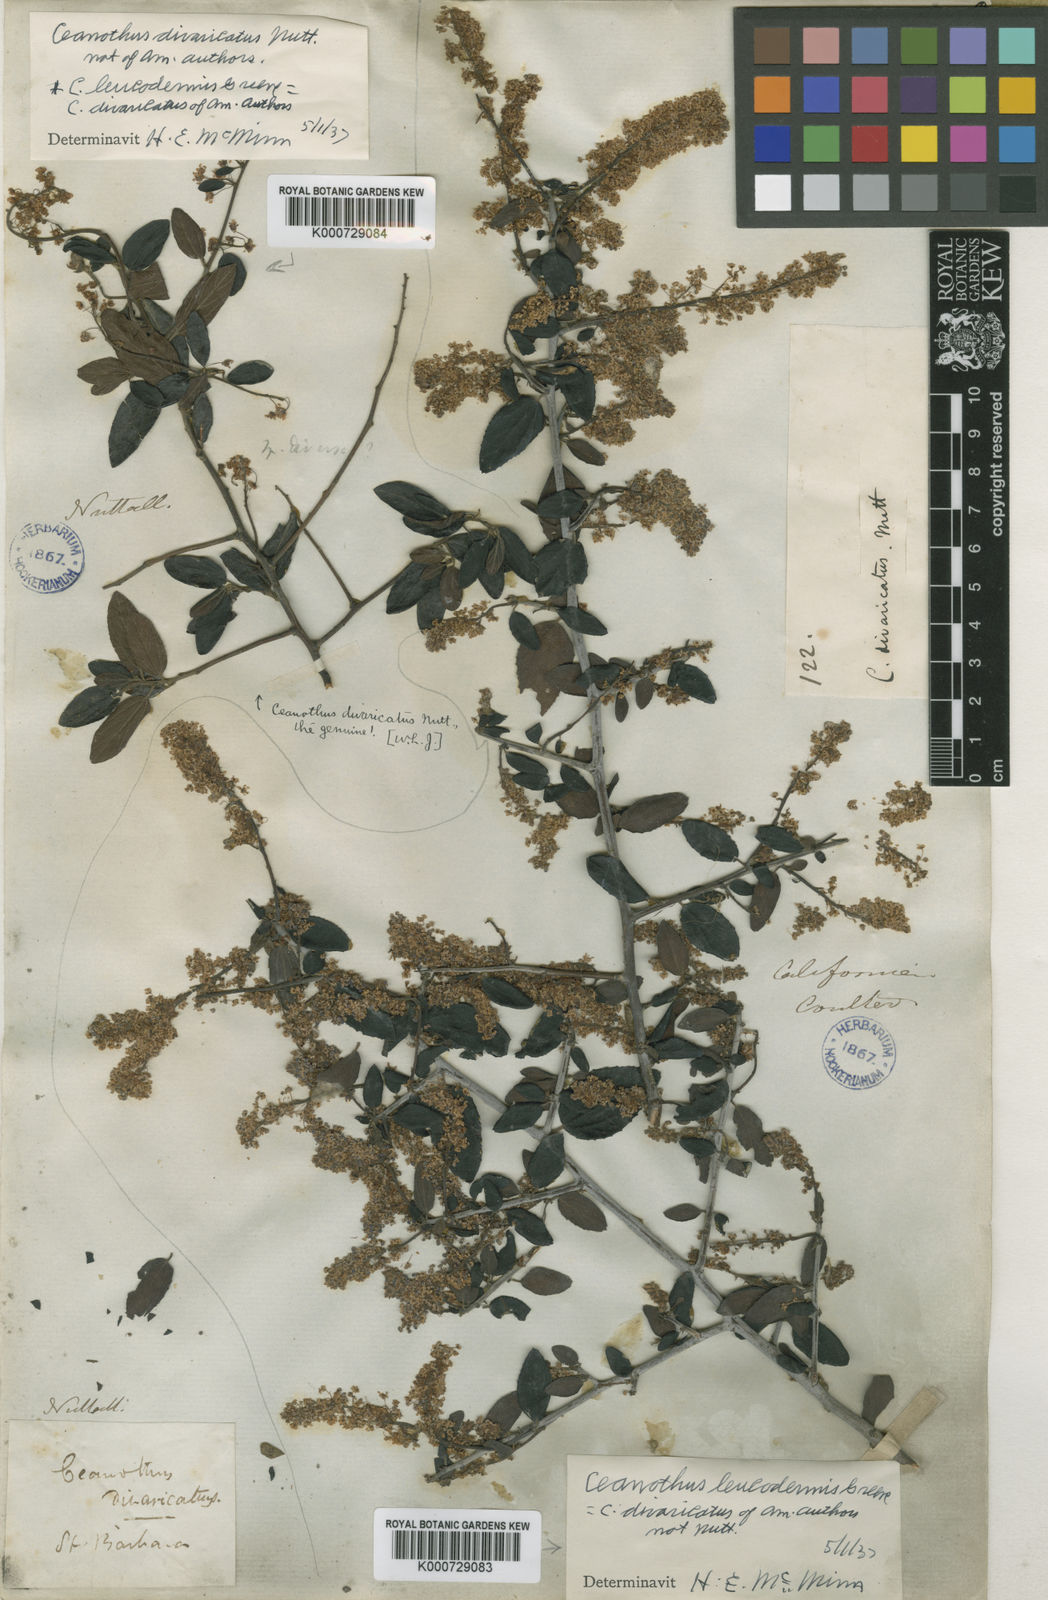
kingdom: Plantae
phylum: Tracheophyta
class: Magnoliopsida
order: Rosales
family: Rhamnaceae
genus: Ceanothus
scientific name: Ceanothus oliganthus
